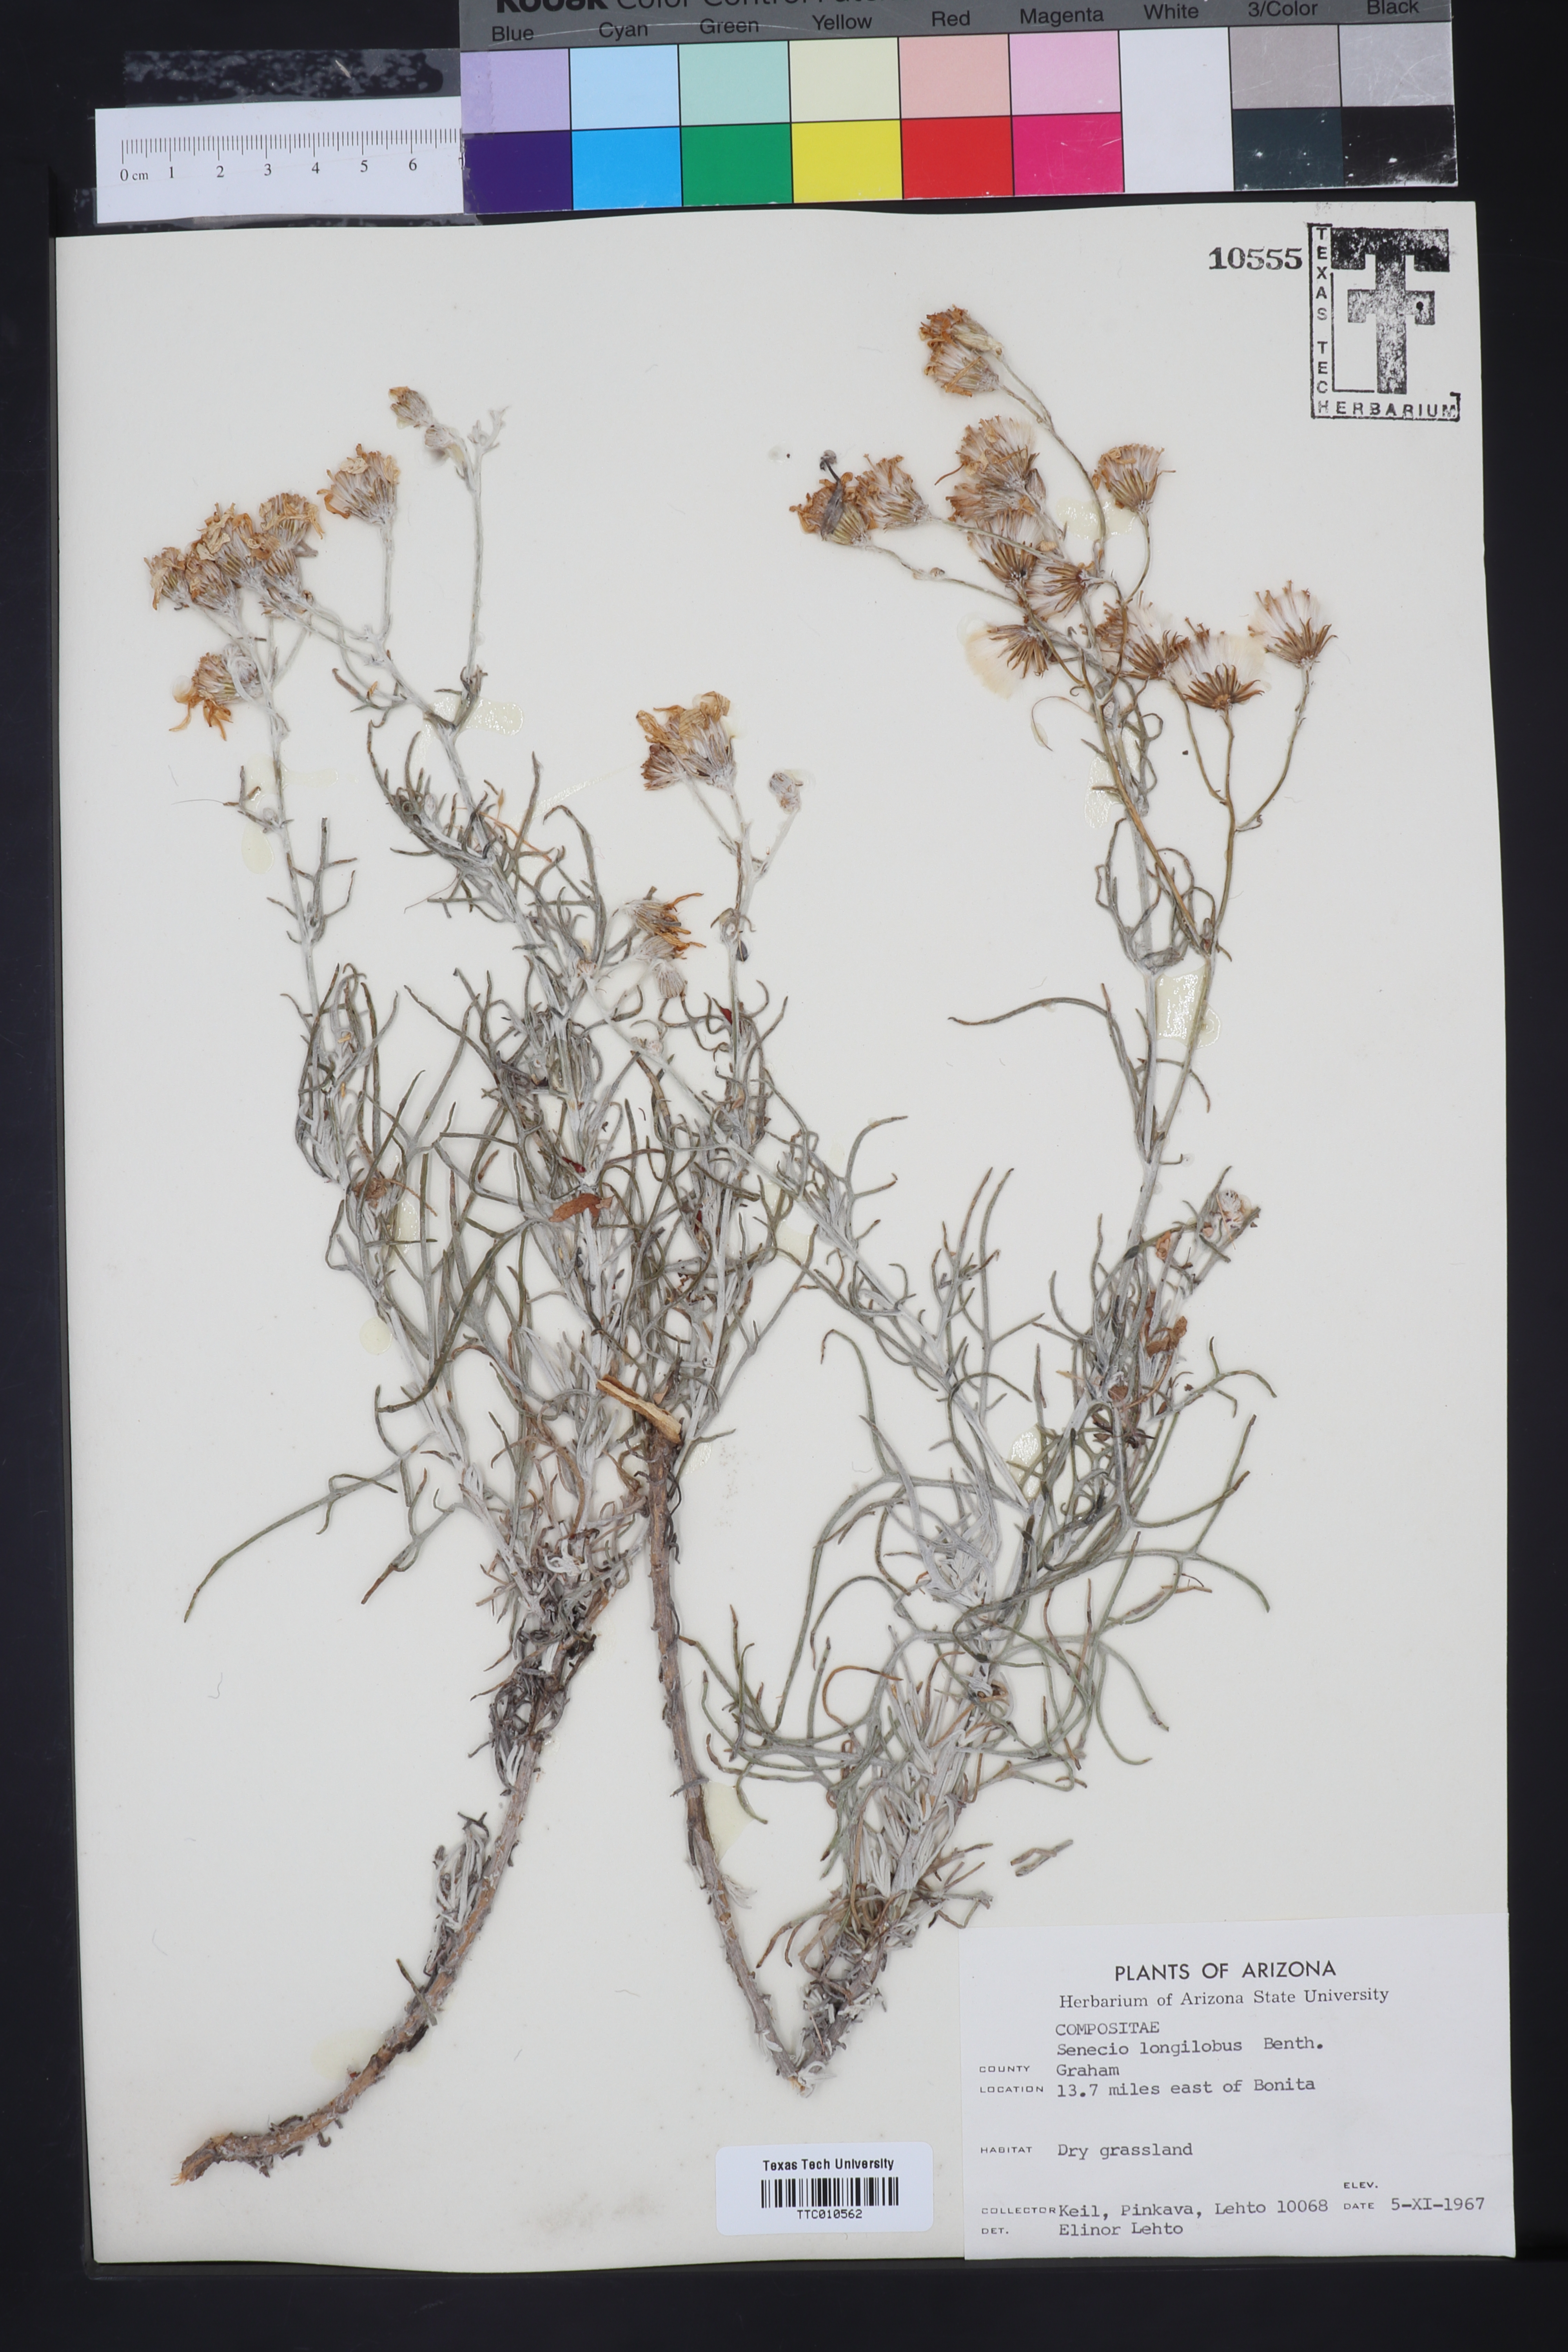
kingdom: Plantae
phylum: Tracheophyta
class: Magnoliopsida
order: Asterales
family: Asteraceae
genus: Senecio
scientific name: Senecio flaccidus
